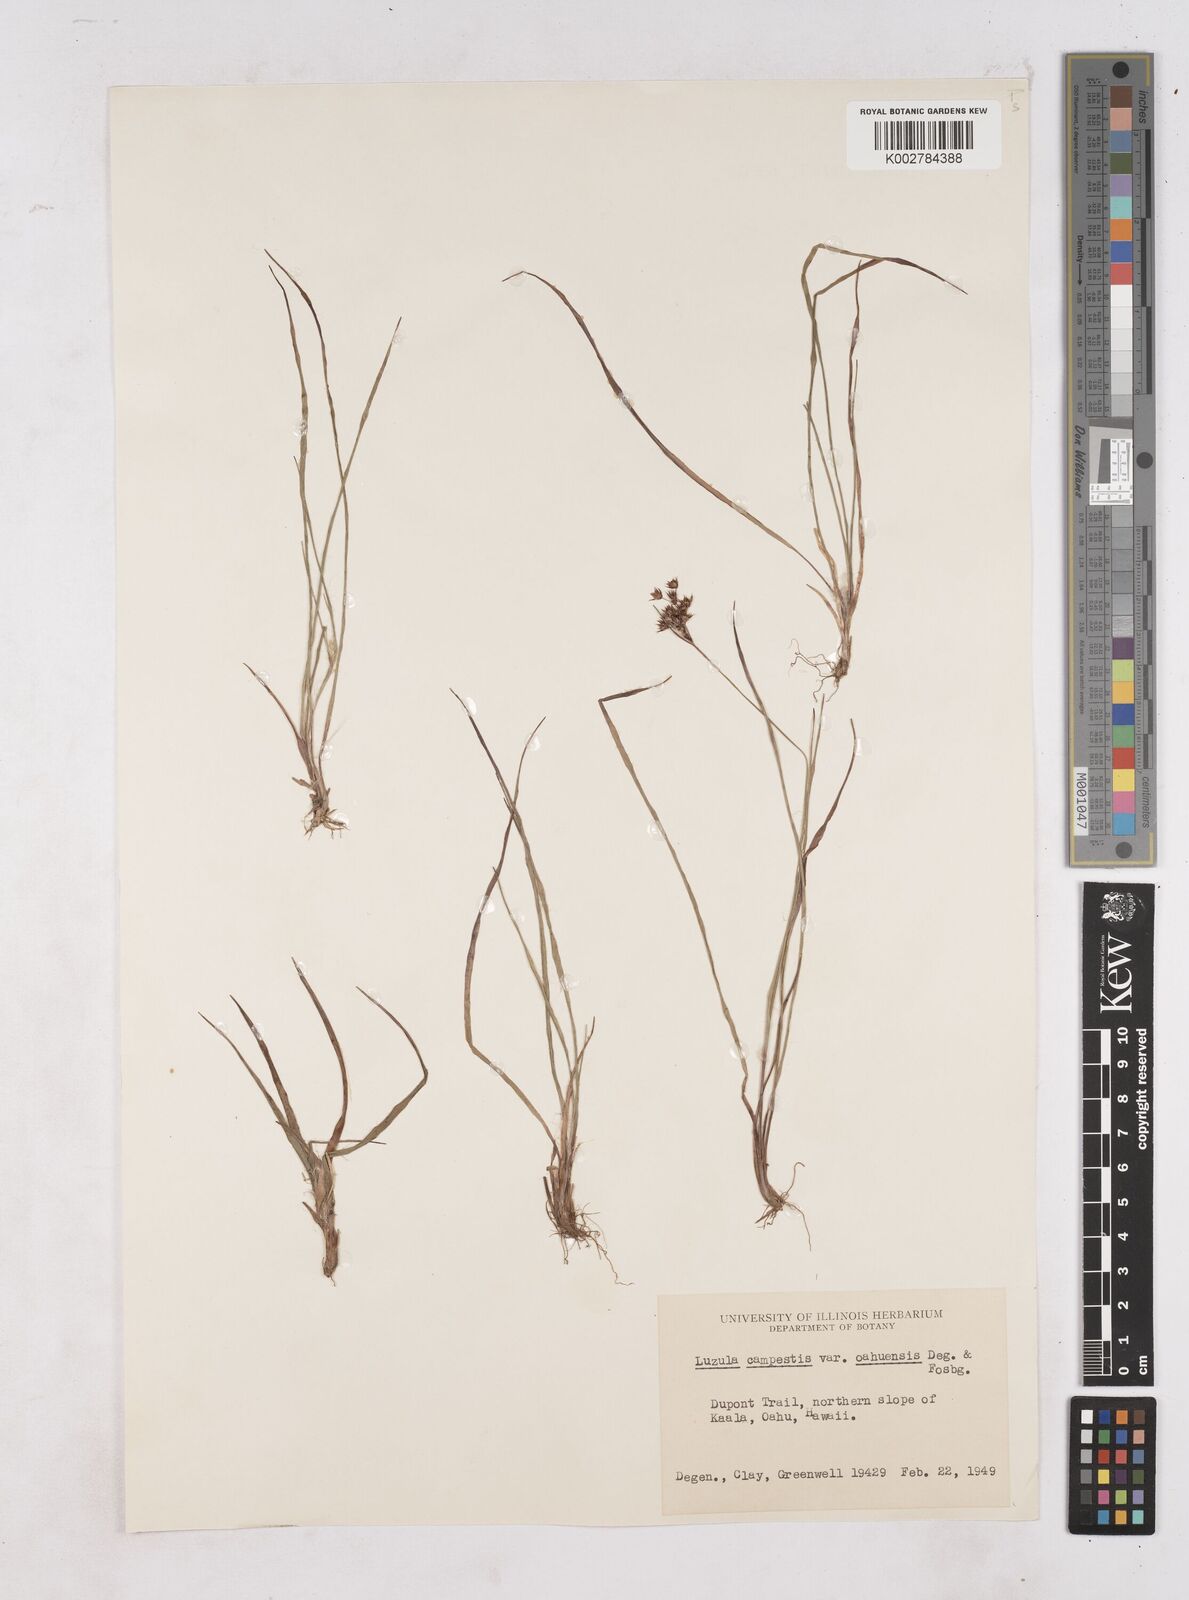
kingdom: Plantae
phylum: Tracheophyta
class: Liliopsida
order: Poales
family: Juncaceae
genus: Luzula
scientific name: Luzula campestris
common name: Field wood-rush
